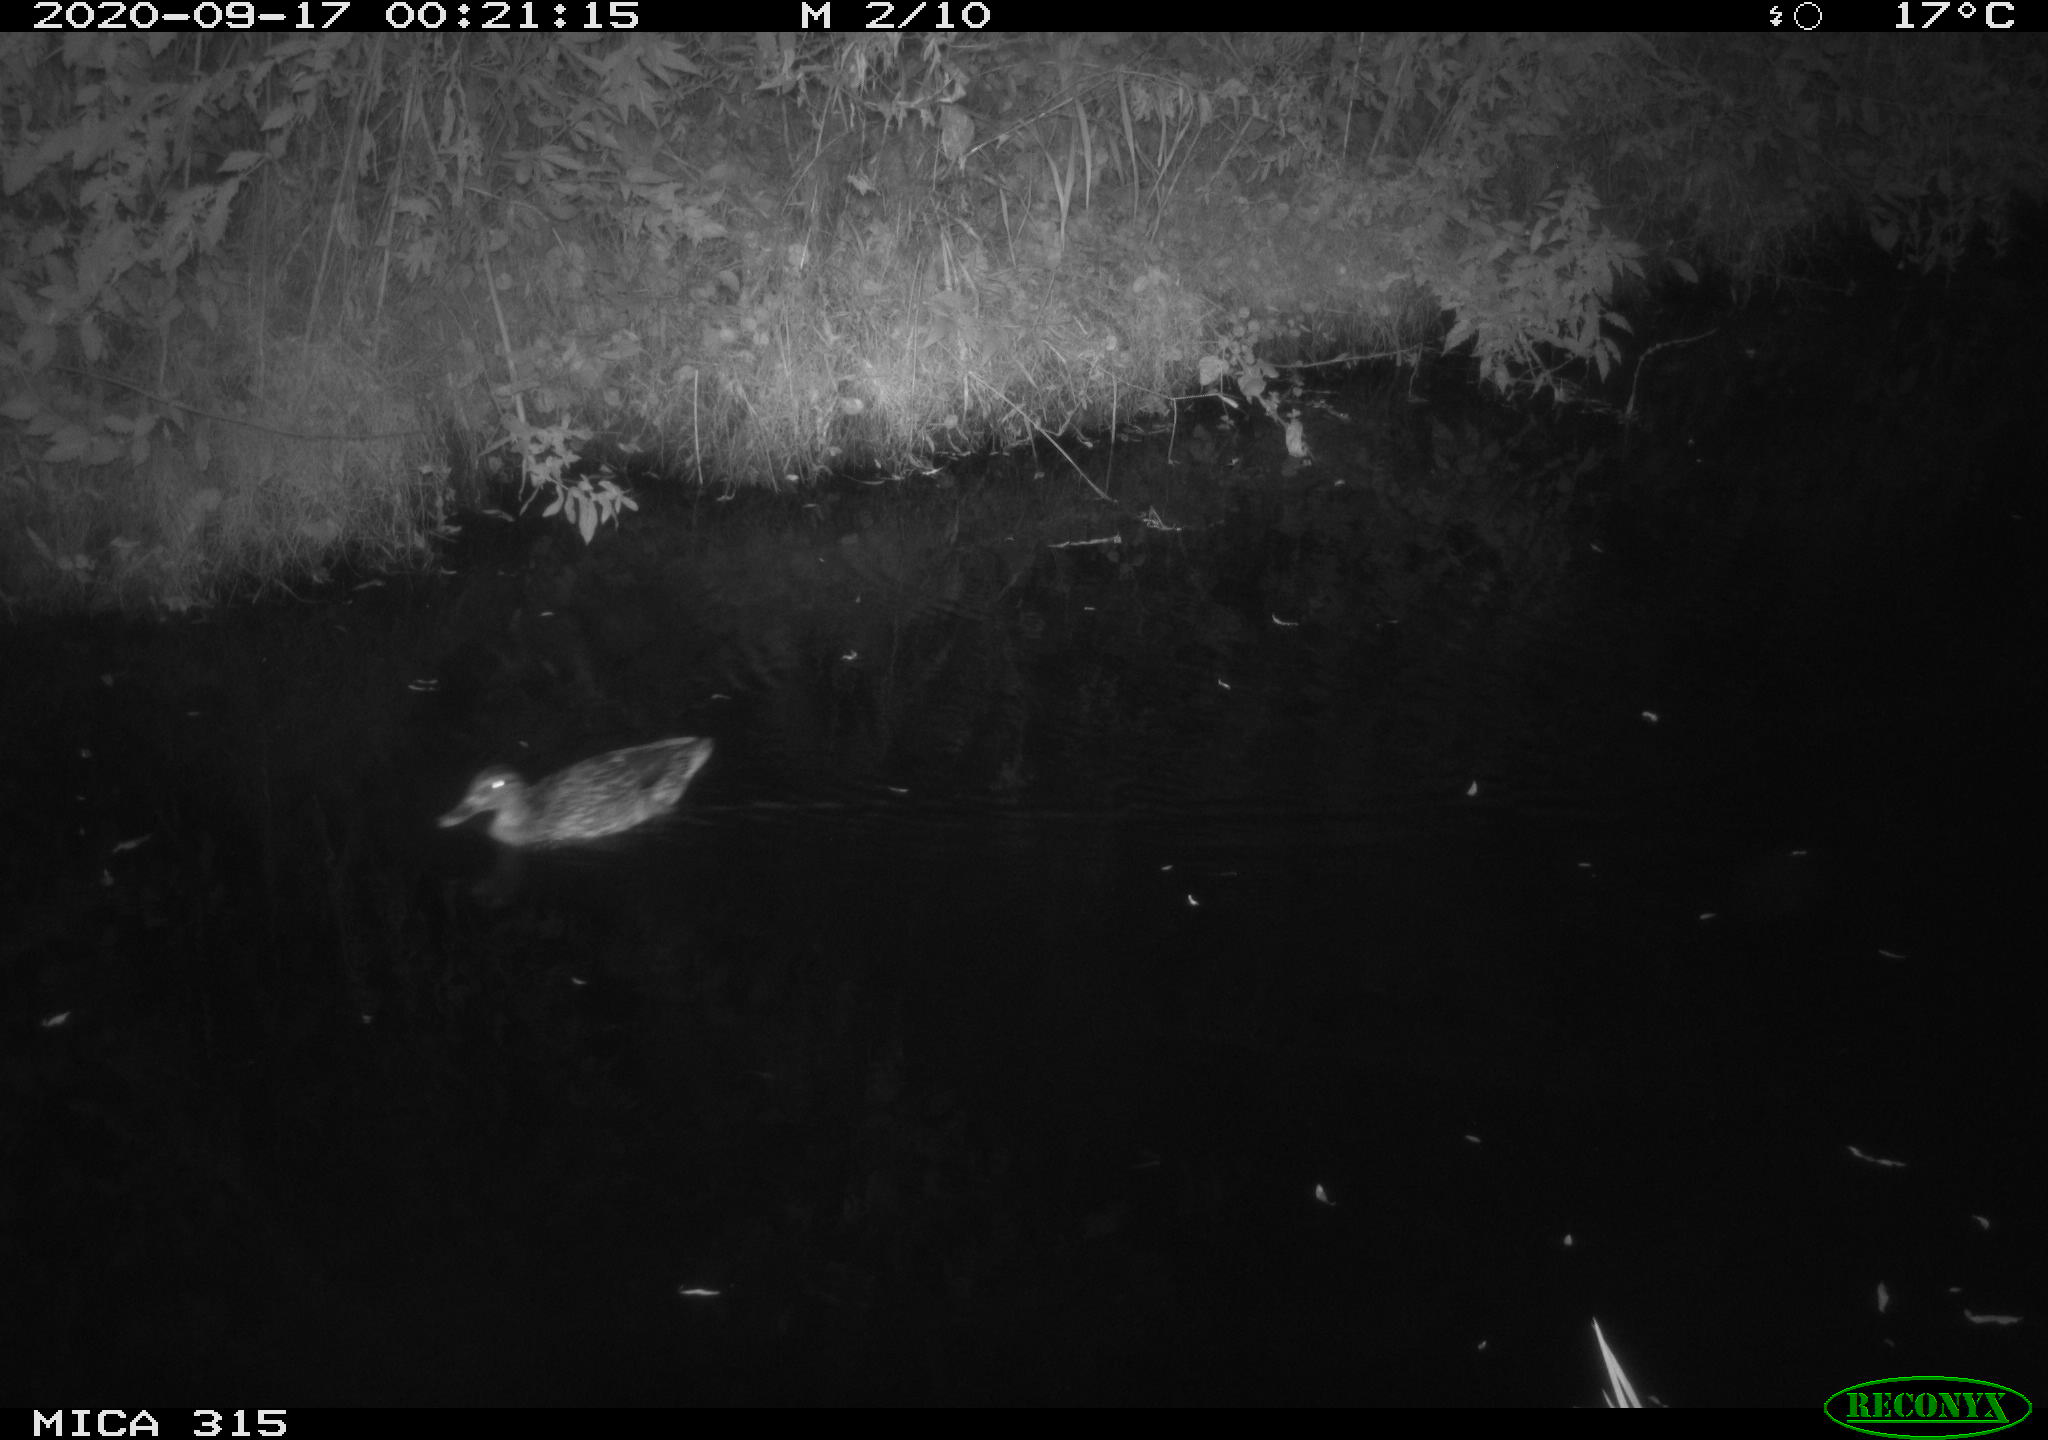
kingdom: Animalia
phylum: Chordata
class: Aves
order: Anseriformes
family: Anatidae
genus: Anas
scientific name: Anas platyrhynchos
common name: Mallard
